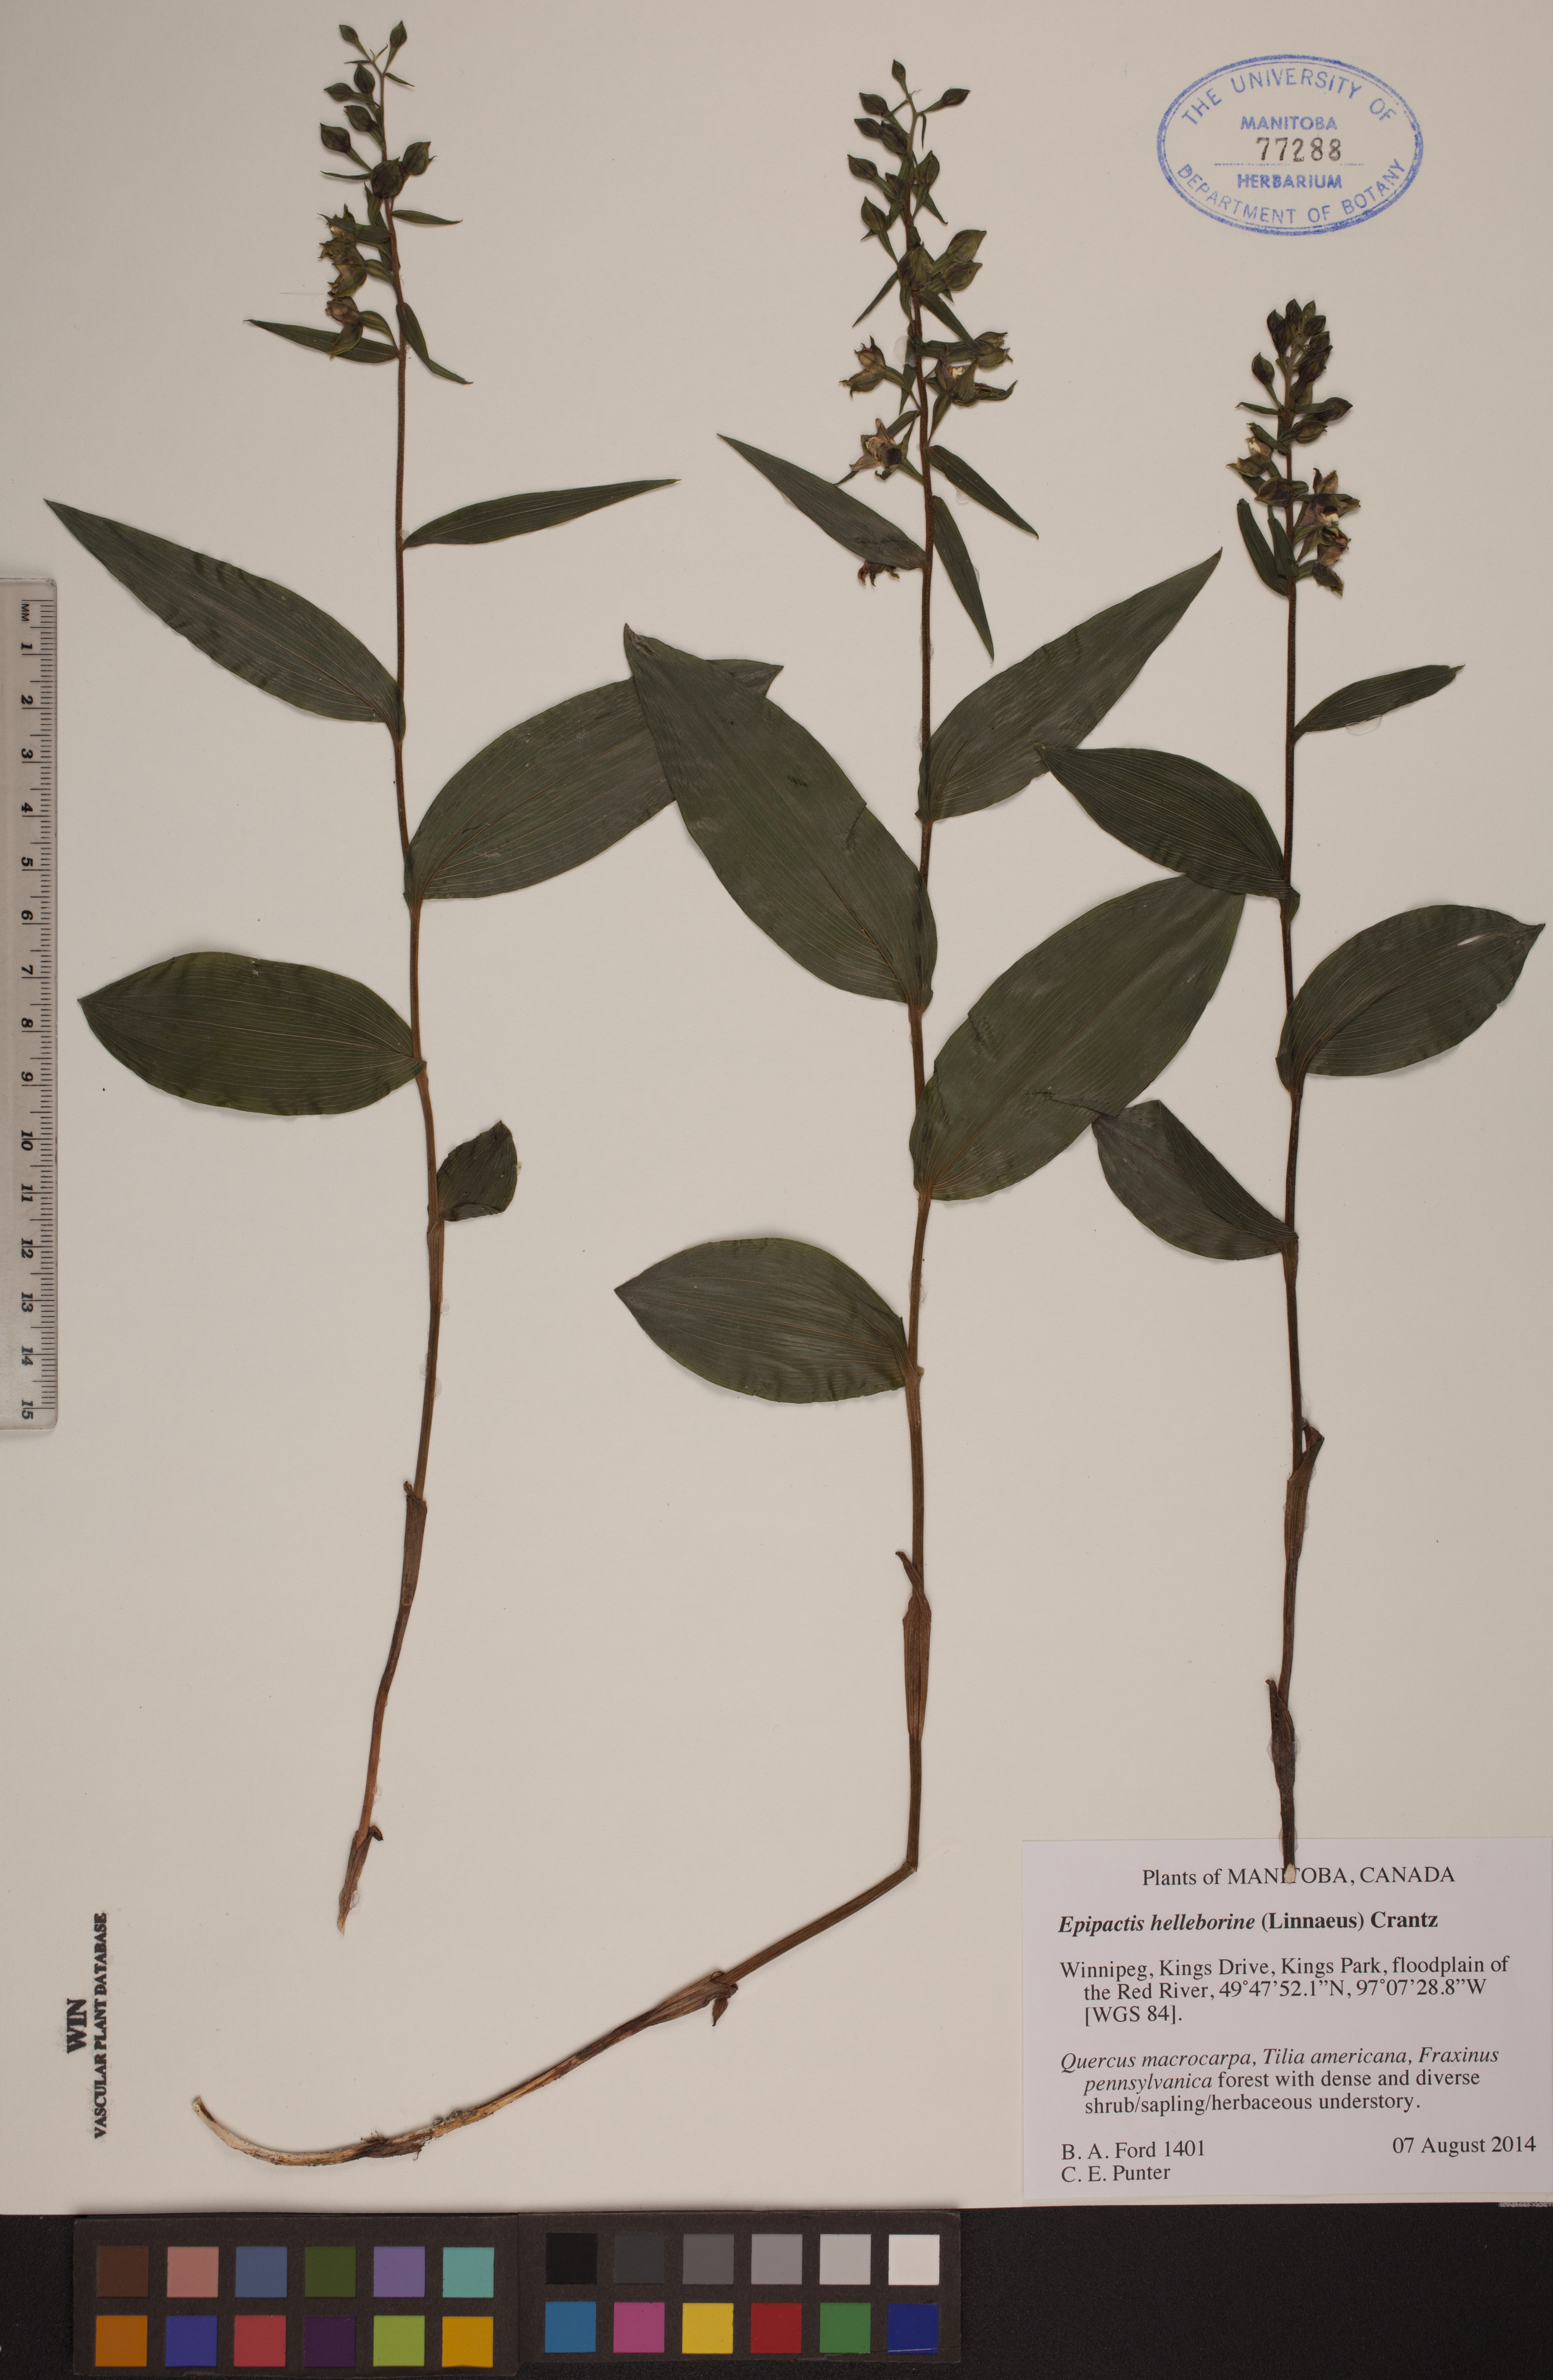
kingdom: Plantae
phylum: Tracheophyta
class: Liliopsida
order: Asparagales
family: Orchidaceae
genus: Epipactis
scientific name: Epipactis helleborine
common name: Broad-leaved helleborine
